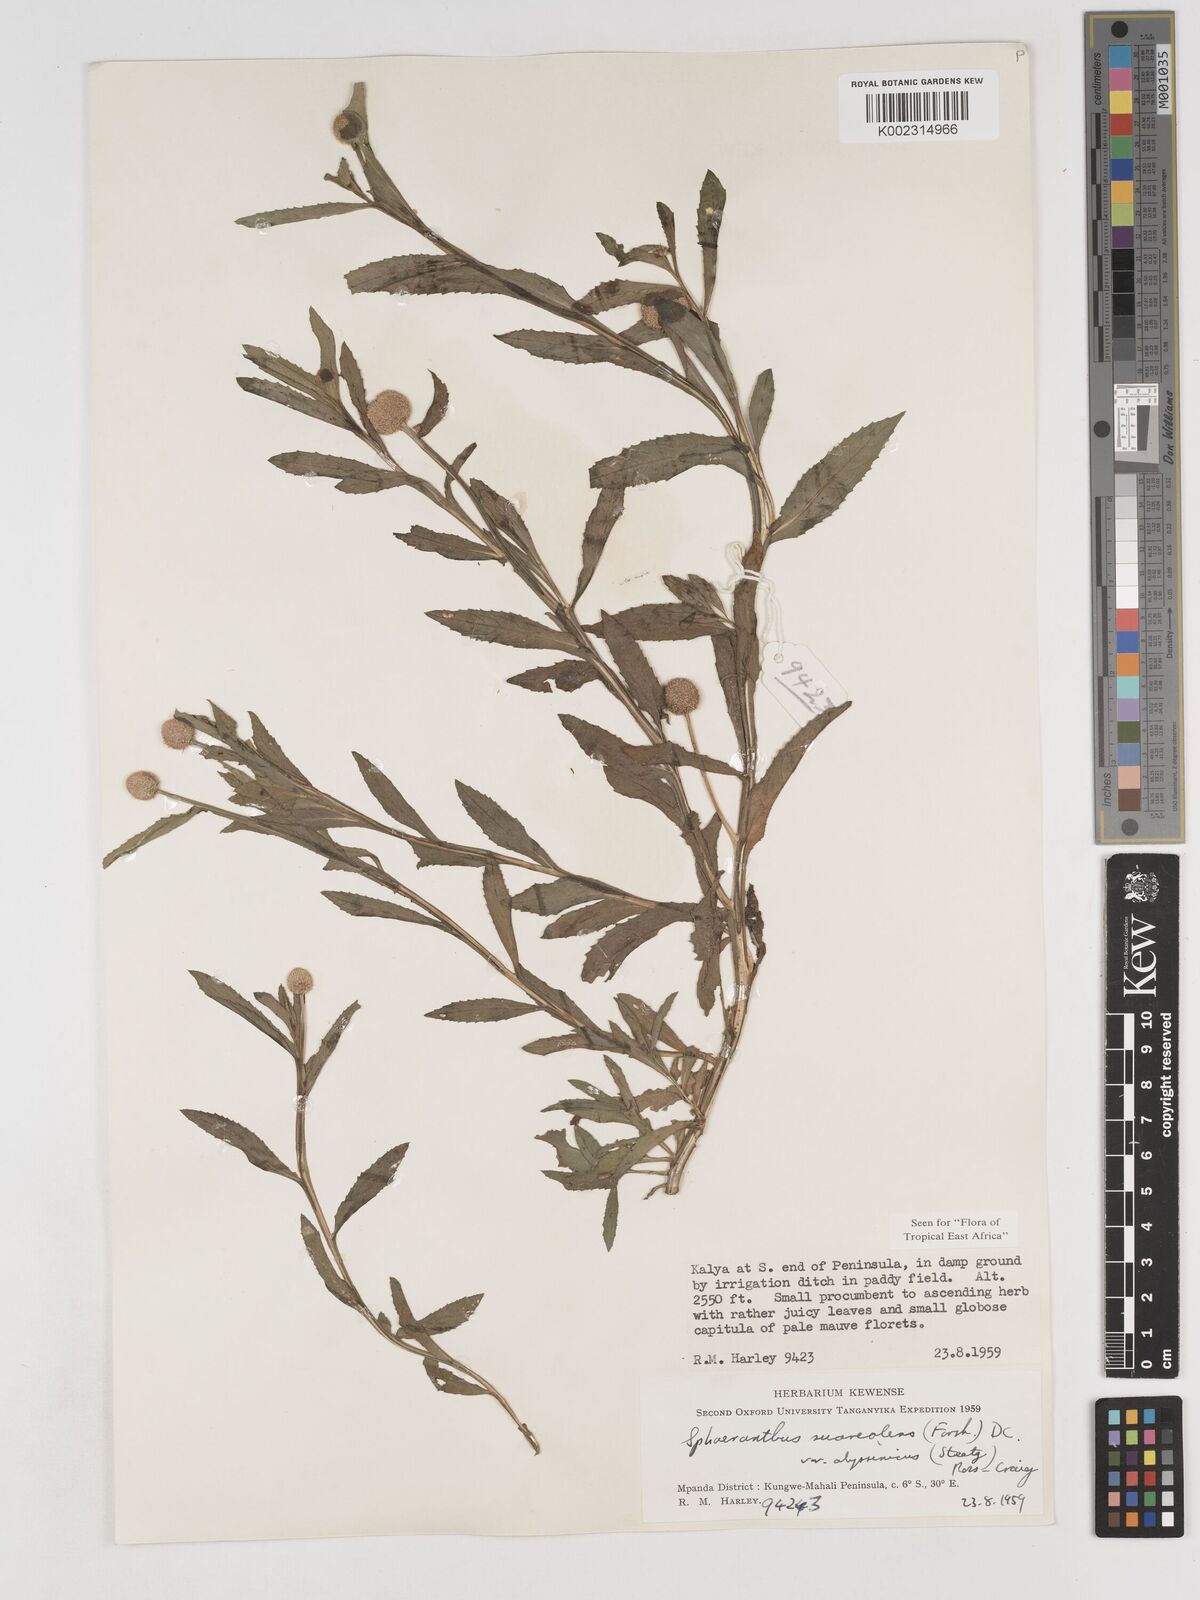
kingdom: Plantae
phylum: Tracheophyta
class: Magnoliopsida
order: Asterales
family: Asteraceae
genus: Sphaeranthus
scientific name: Sphaeranthus suaveolens
